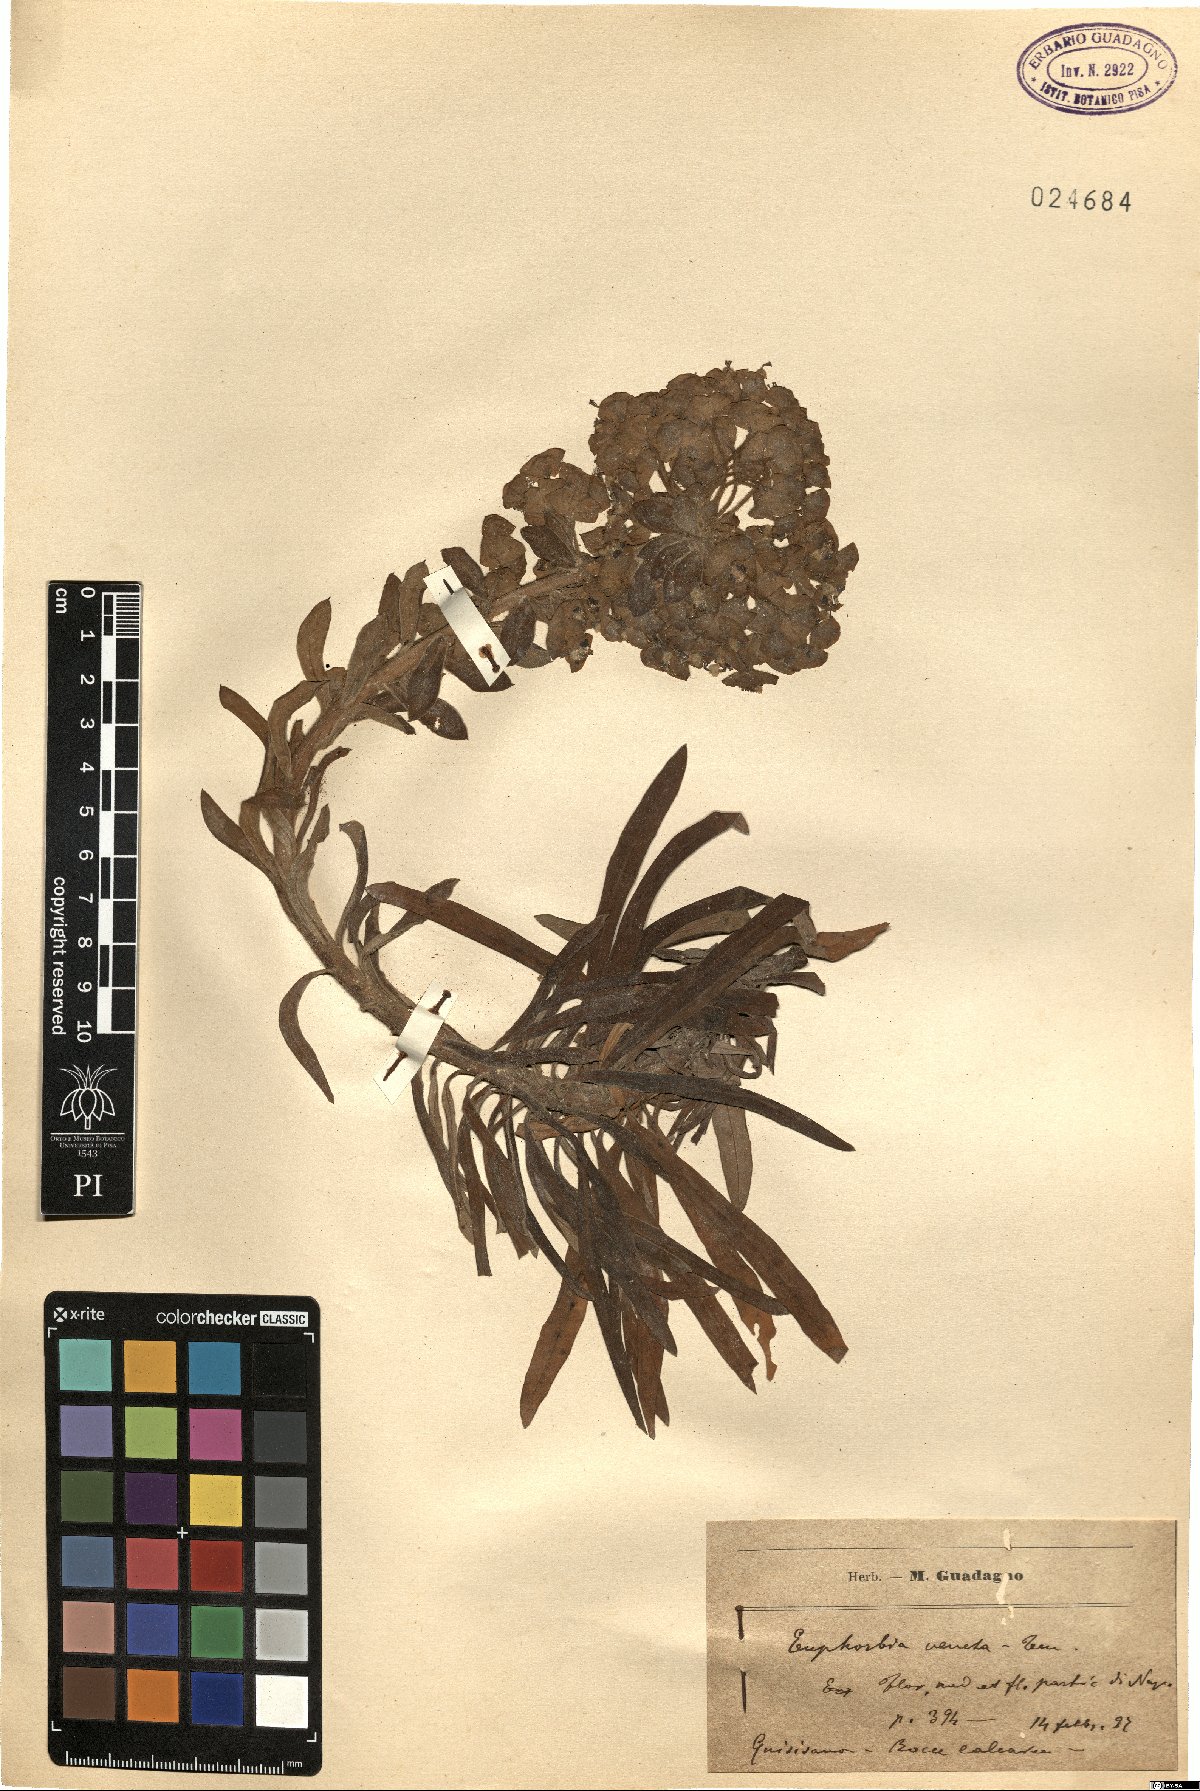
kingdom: Plantae
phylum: Tracheophyta
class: Magnoliopsida
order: Malpighiales
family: Euphorbiaceae
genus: Euphorbia
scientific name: Euphorbia characias
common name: Mediterranean spurge
